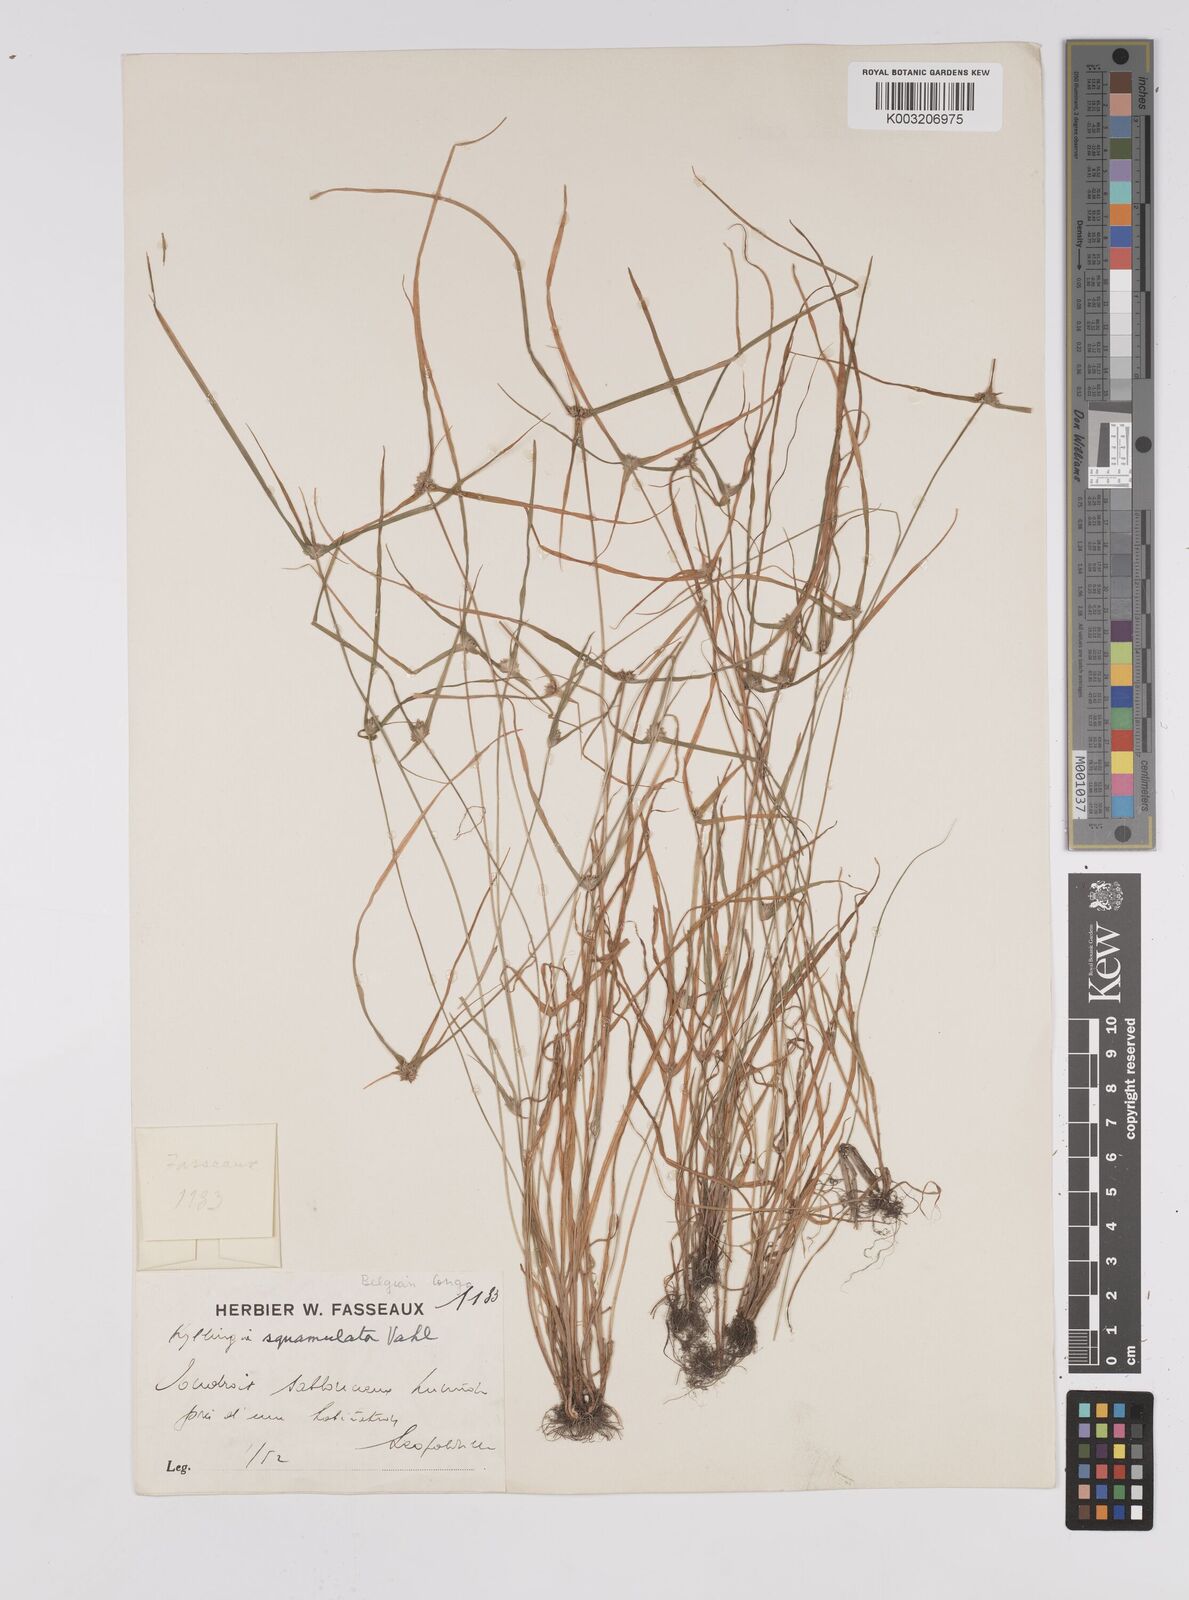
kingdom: Plantae
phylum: Tracheophyta
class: Liliopsida
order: Poales
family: Cyperaceae
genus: Cyperus
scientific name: Cyperus metzii
